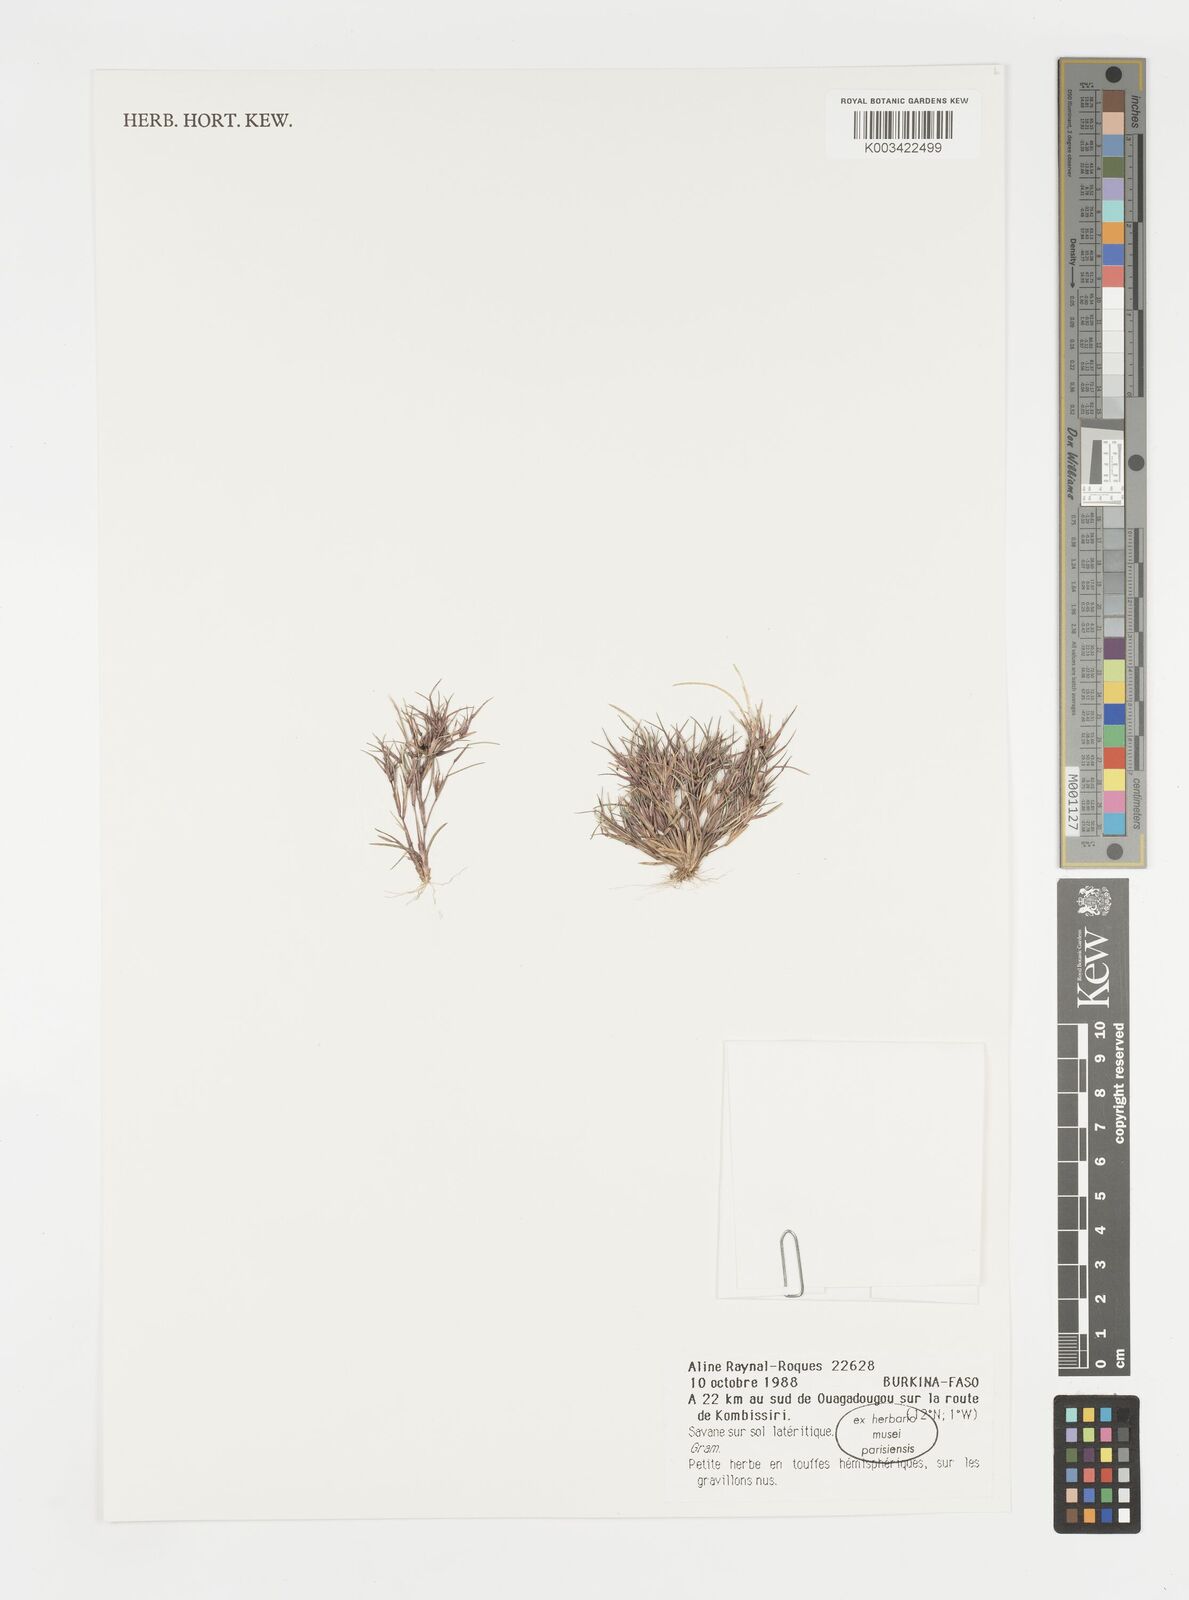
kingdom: Plantae
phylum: Tracheophyta
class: Liliopsida
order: Poales
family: Poaceae
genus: Microchloa
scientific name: Microchloa indica
